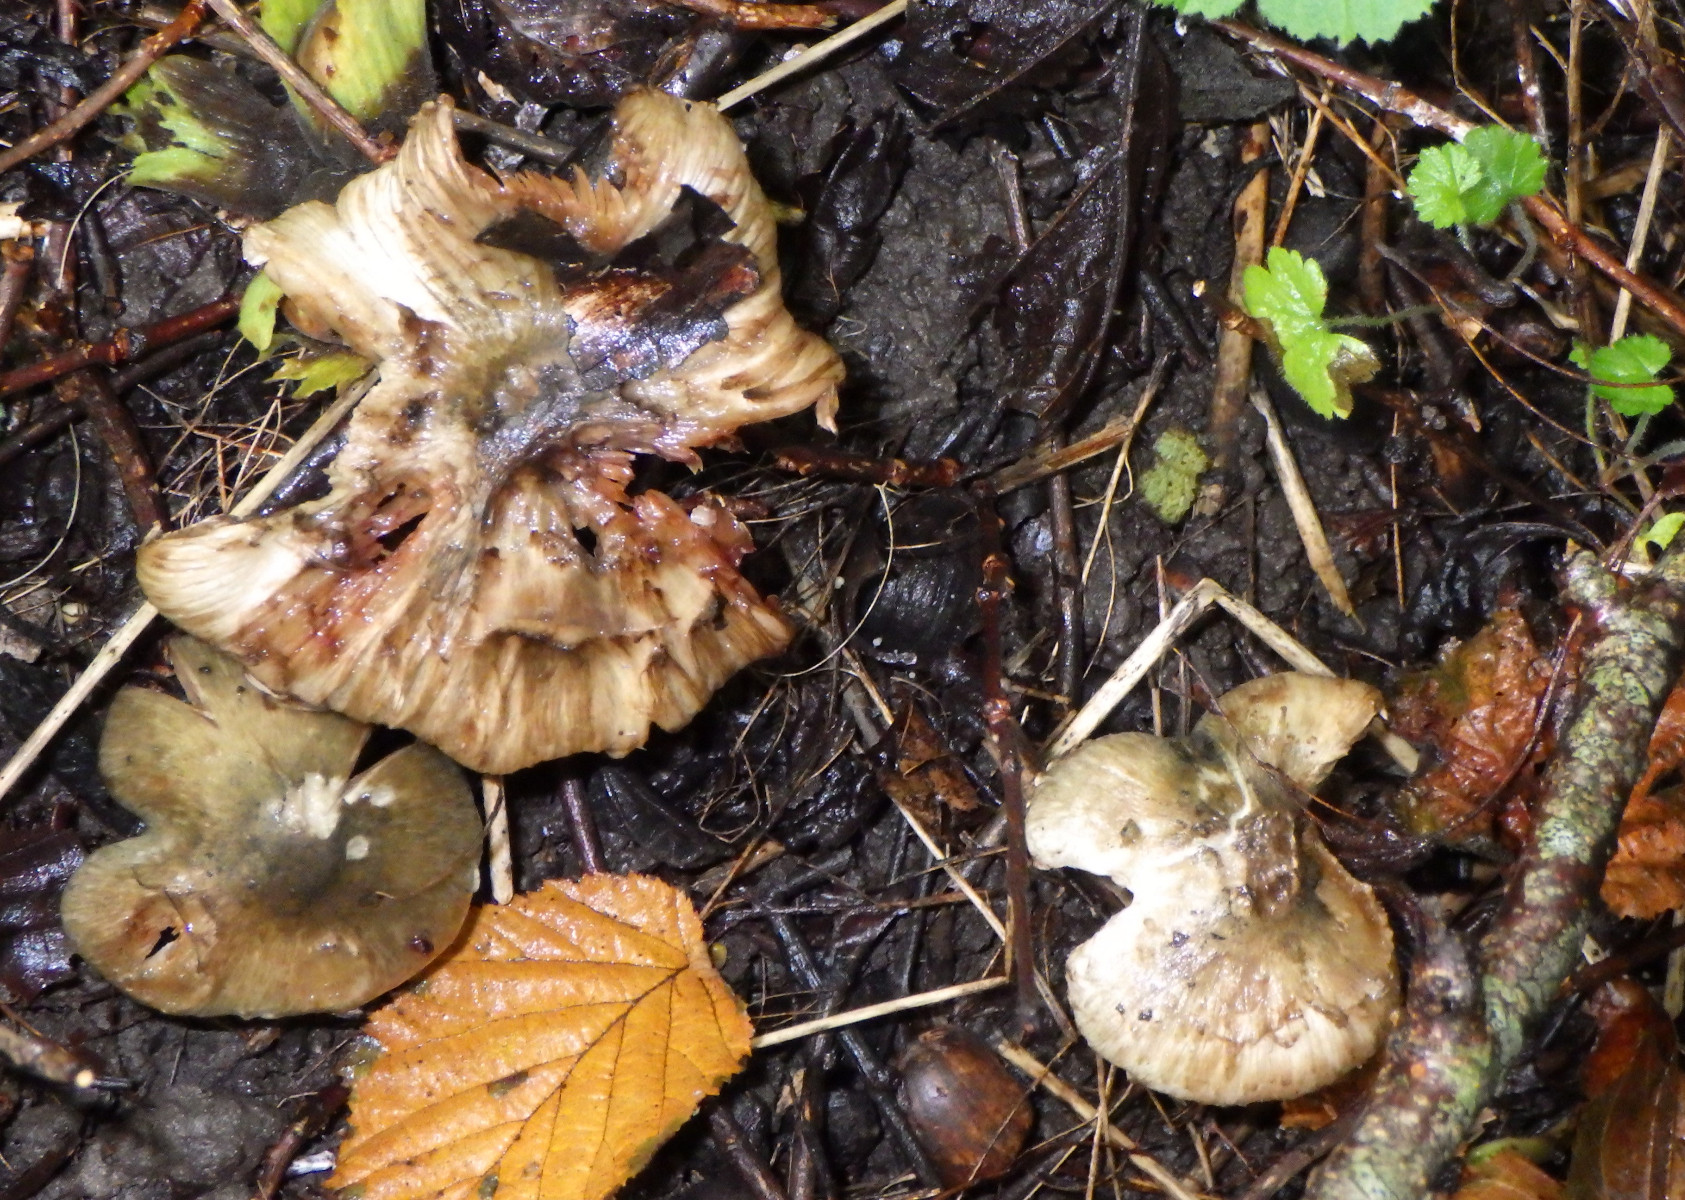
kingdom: Fungi
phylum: Basidiomycota
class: Agaricomycetes
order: Agaricales
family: Inocybaceae
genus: Inocybe
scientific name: Inocybe haemacta
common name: blågrøn trævlhat
